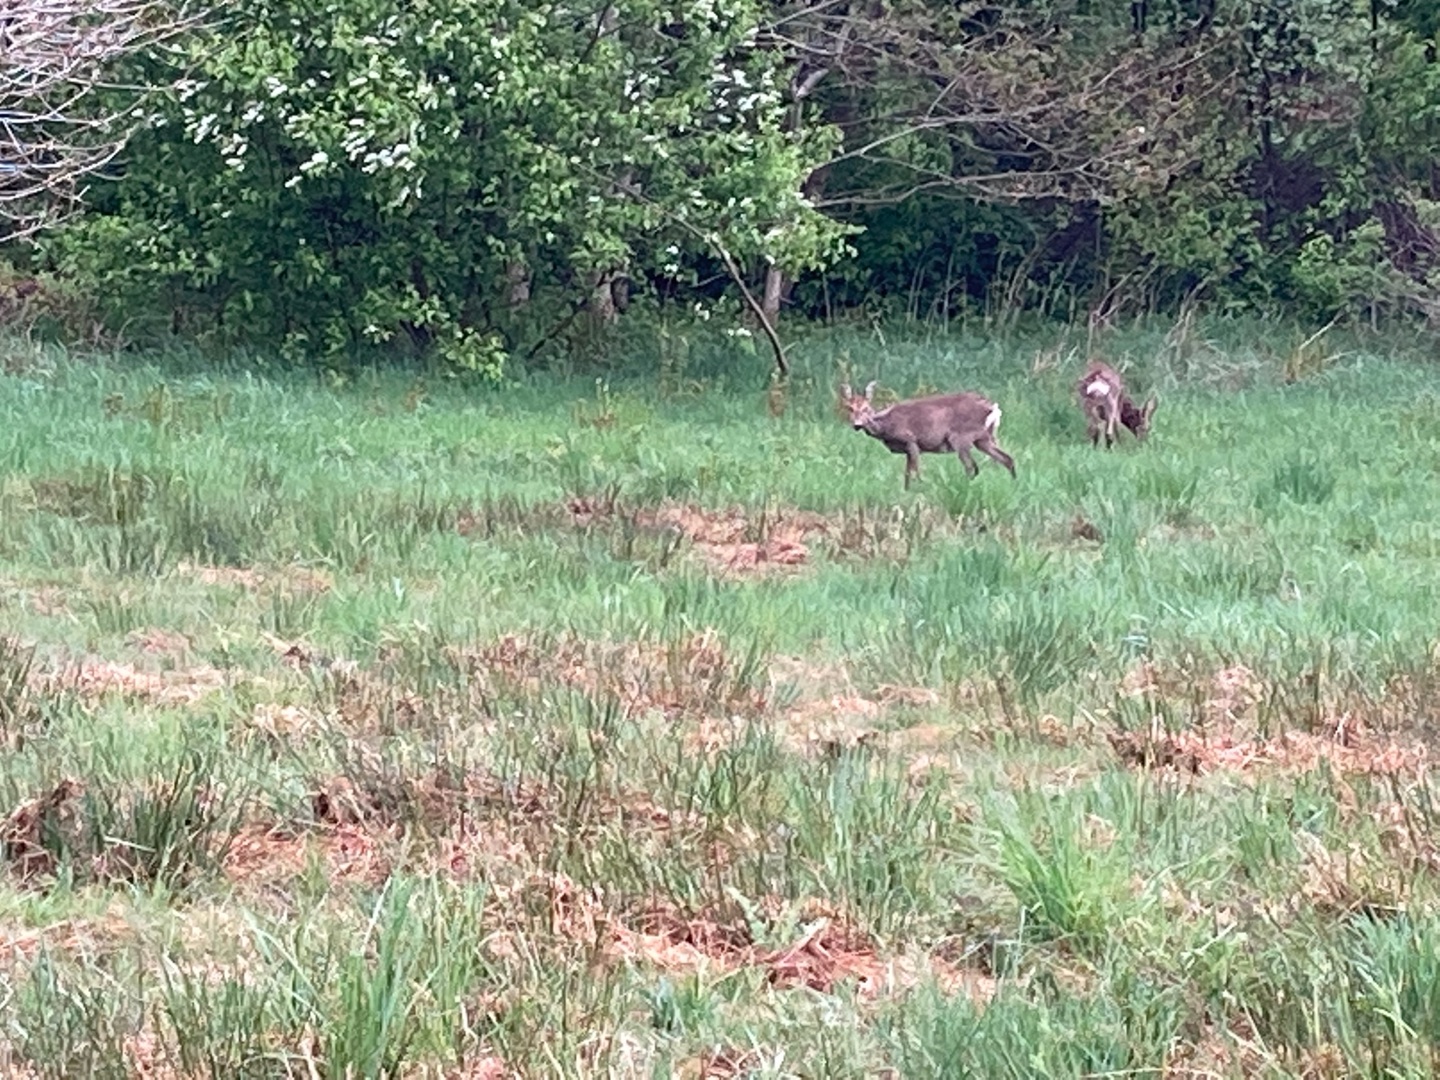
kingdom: Animalia
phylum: Chordata
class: Mammalia
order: Artiodactyla
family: Cervidae
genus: Capreolus
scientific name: Capreolus capreolus
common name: Rådyr
